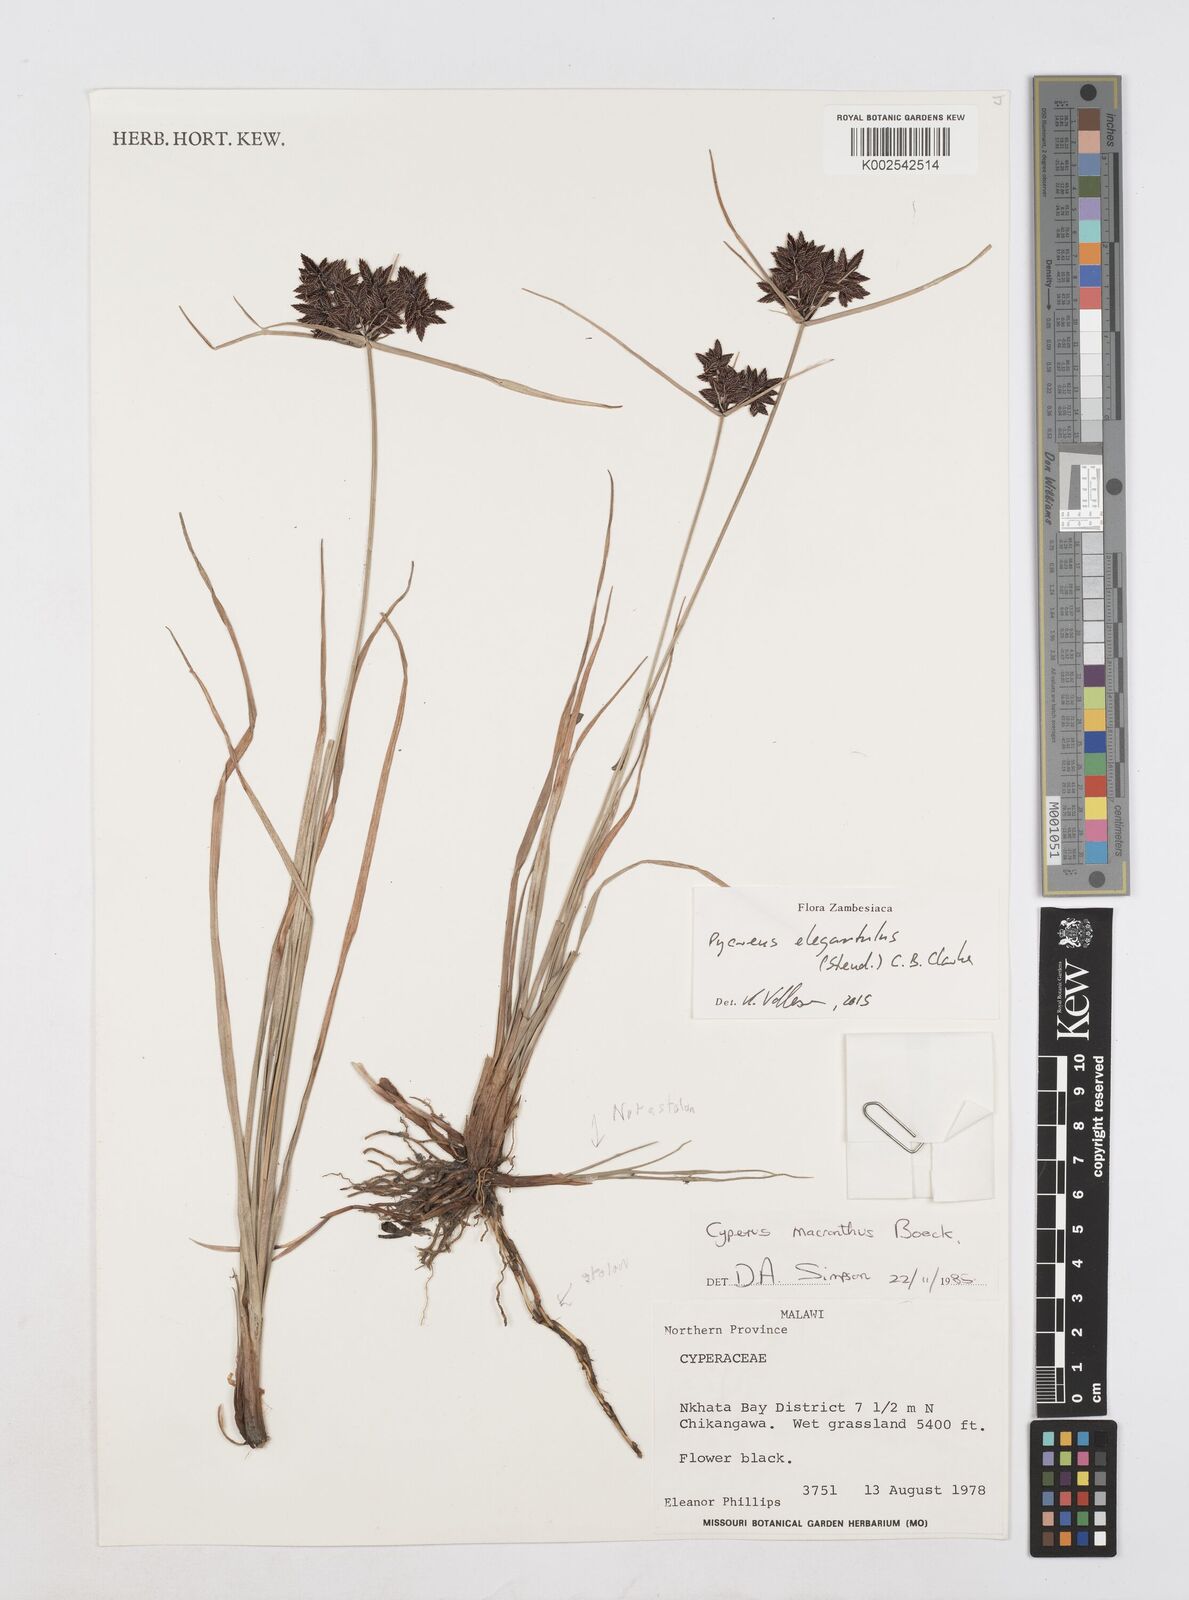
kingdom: Plantae
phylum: Tracheophyta
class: Liliopsida
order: Poales
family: Cyperaceae
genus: Cyperus
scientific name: Cyperus elegantulus
